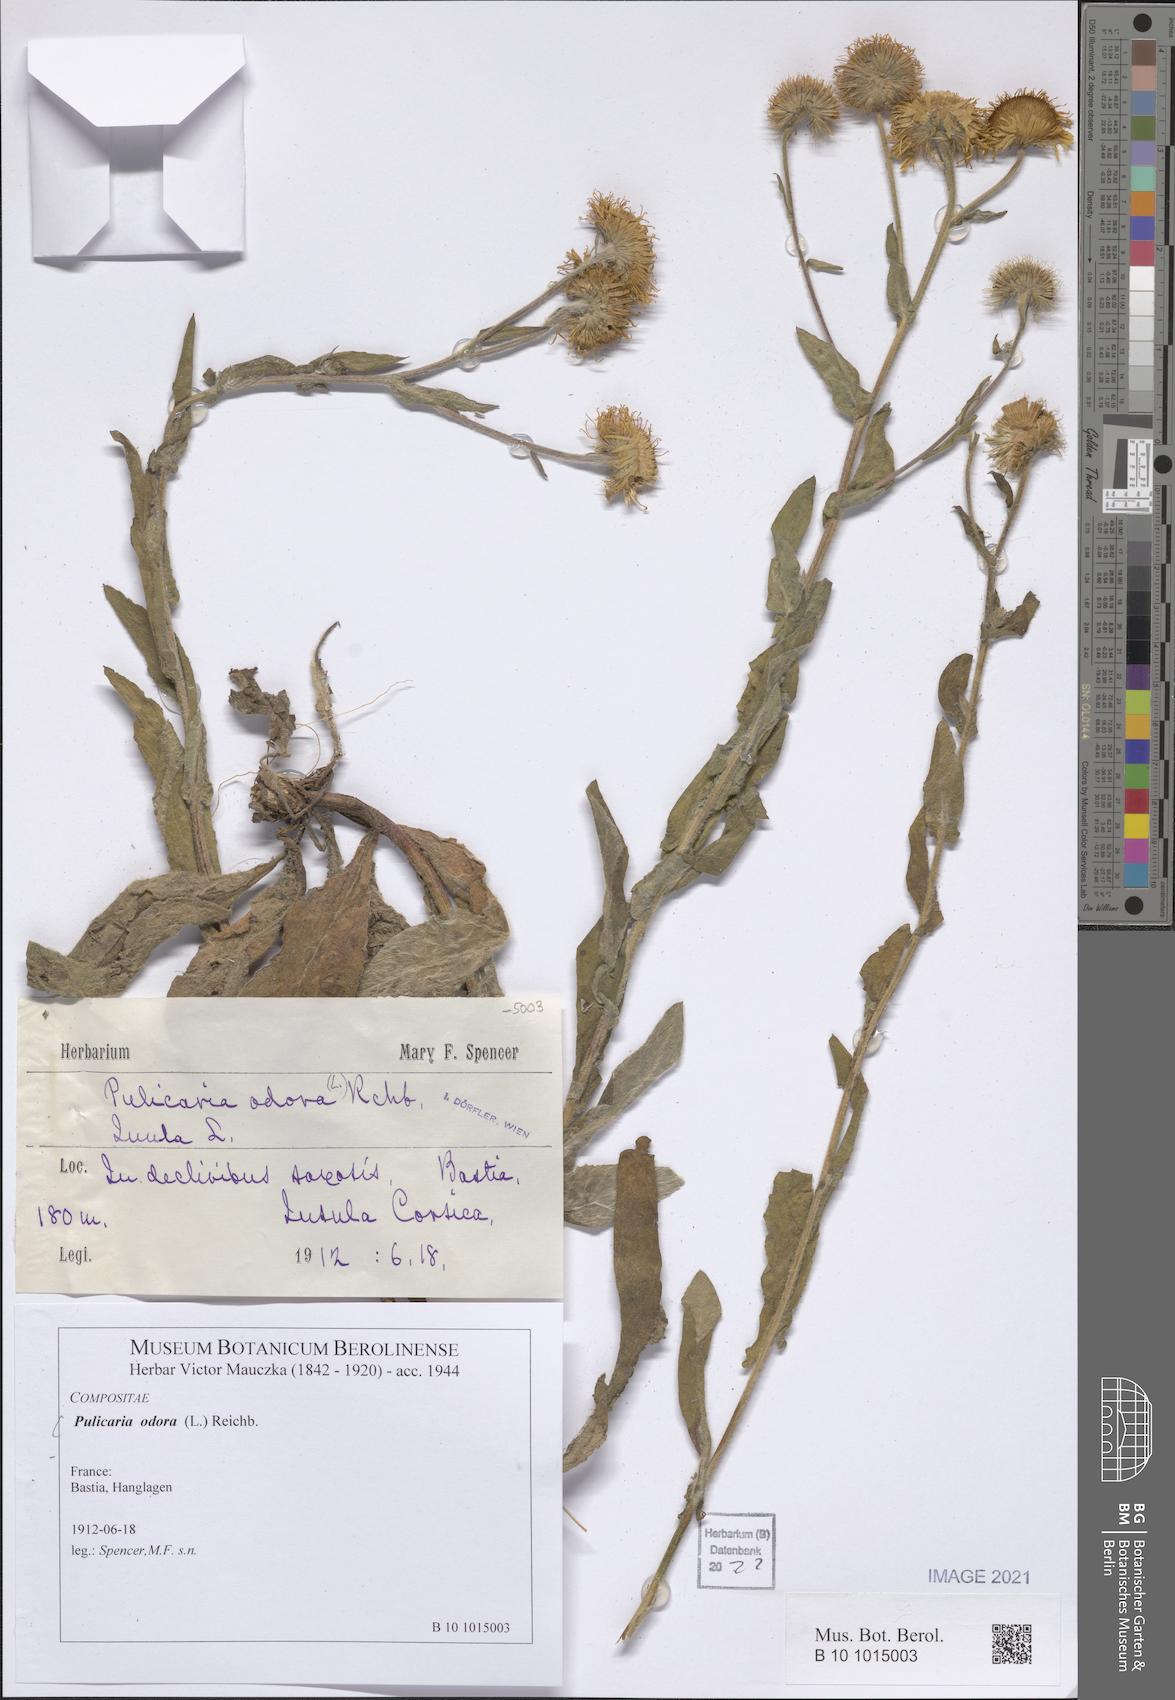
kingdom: Plantae
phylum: Tracheophyta
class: Magnoliopsida
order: Asterales
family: Asteraceae
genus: Pulicaria
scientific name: Pulicaria odora
